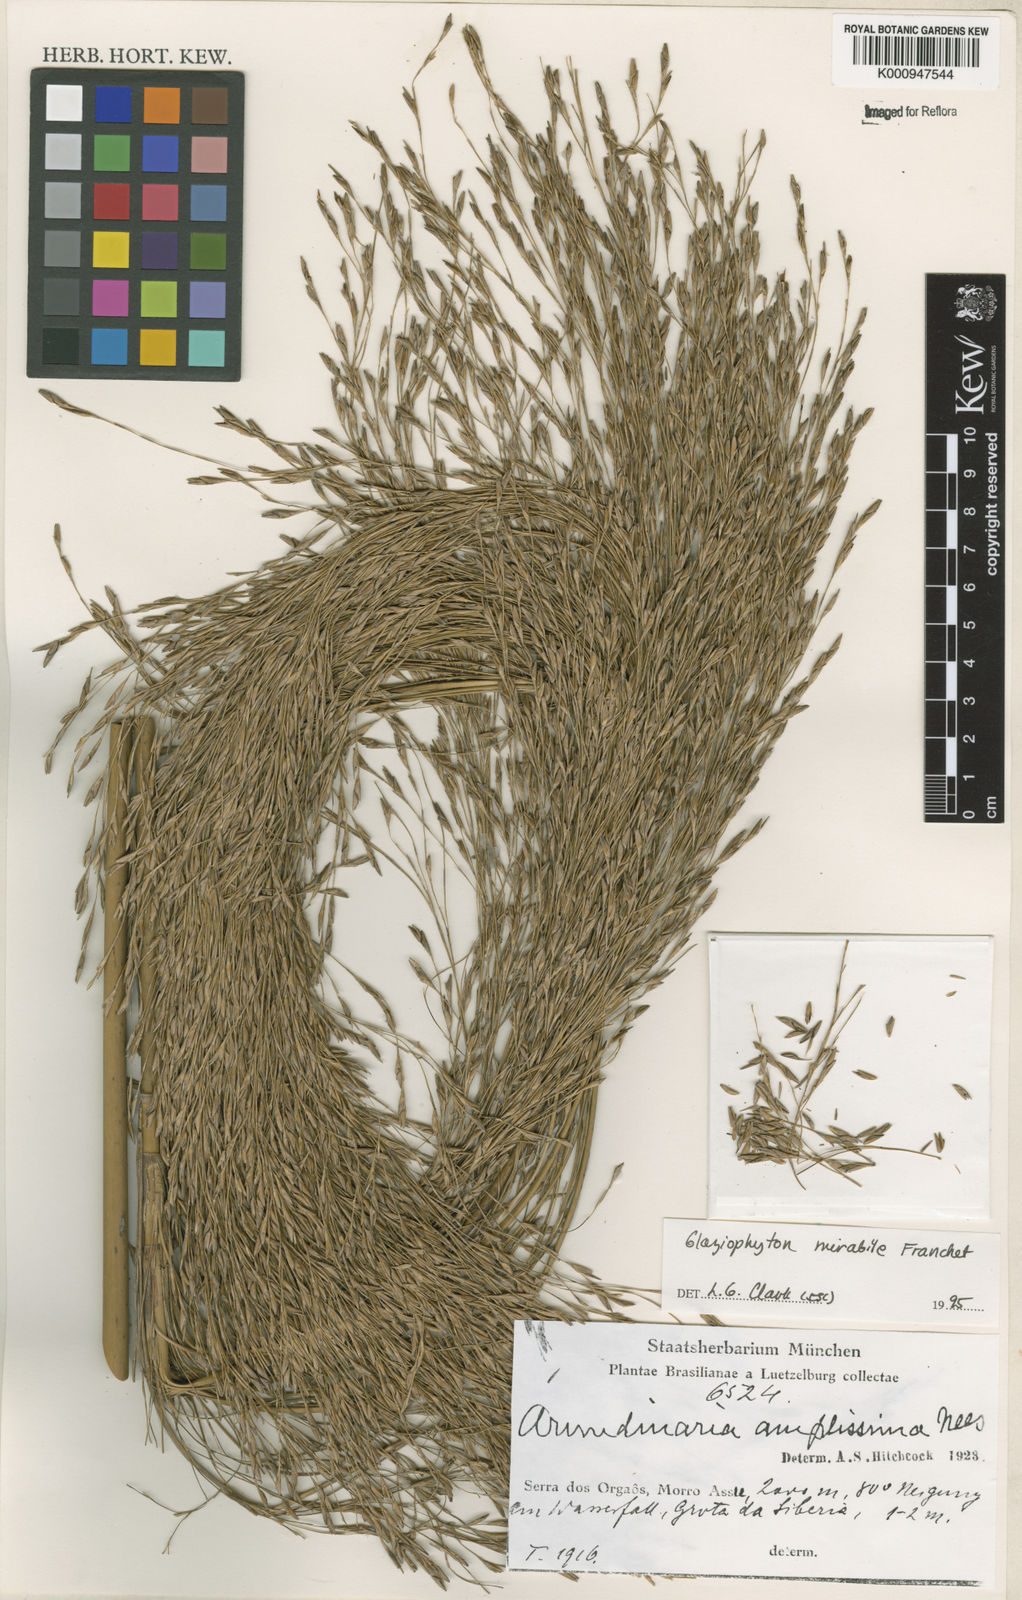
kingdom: Plantae
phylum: Tracheophyta
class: Liliopsida
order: Poales
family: Poaceae
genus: Glaziophyton
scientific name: Glaziophyton mirabile
